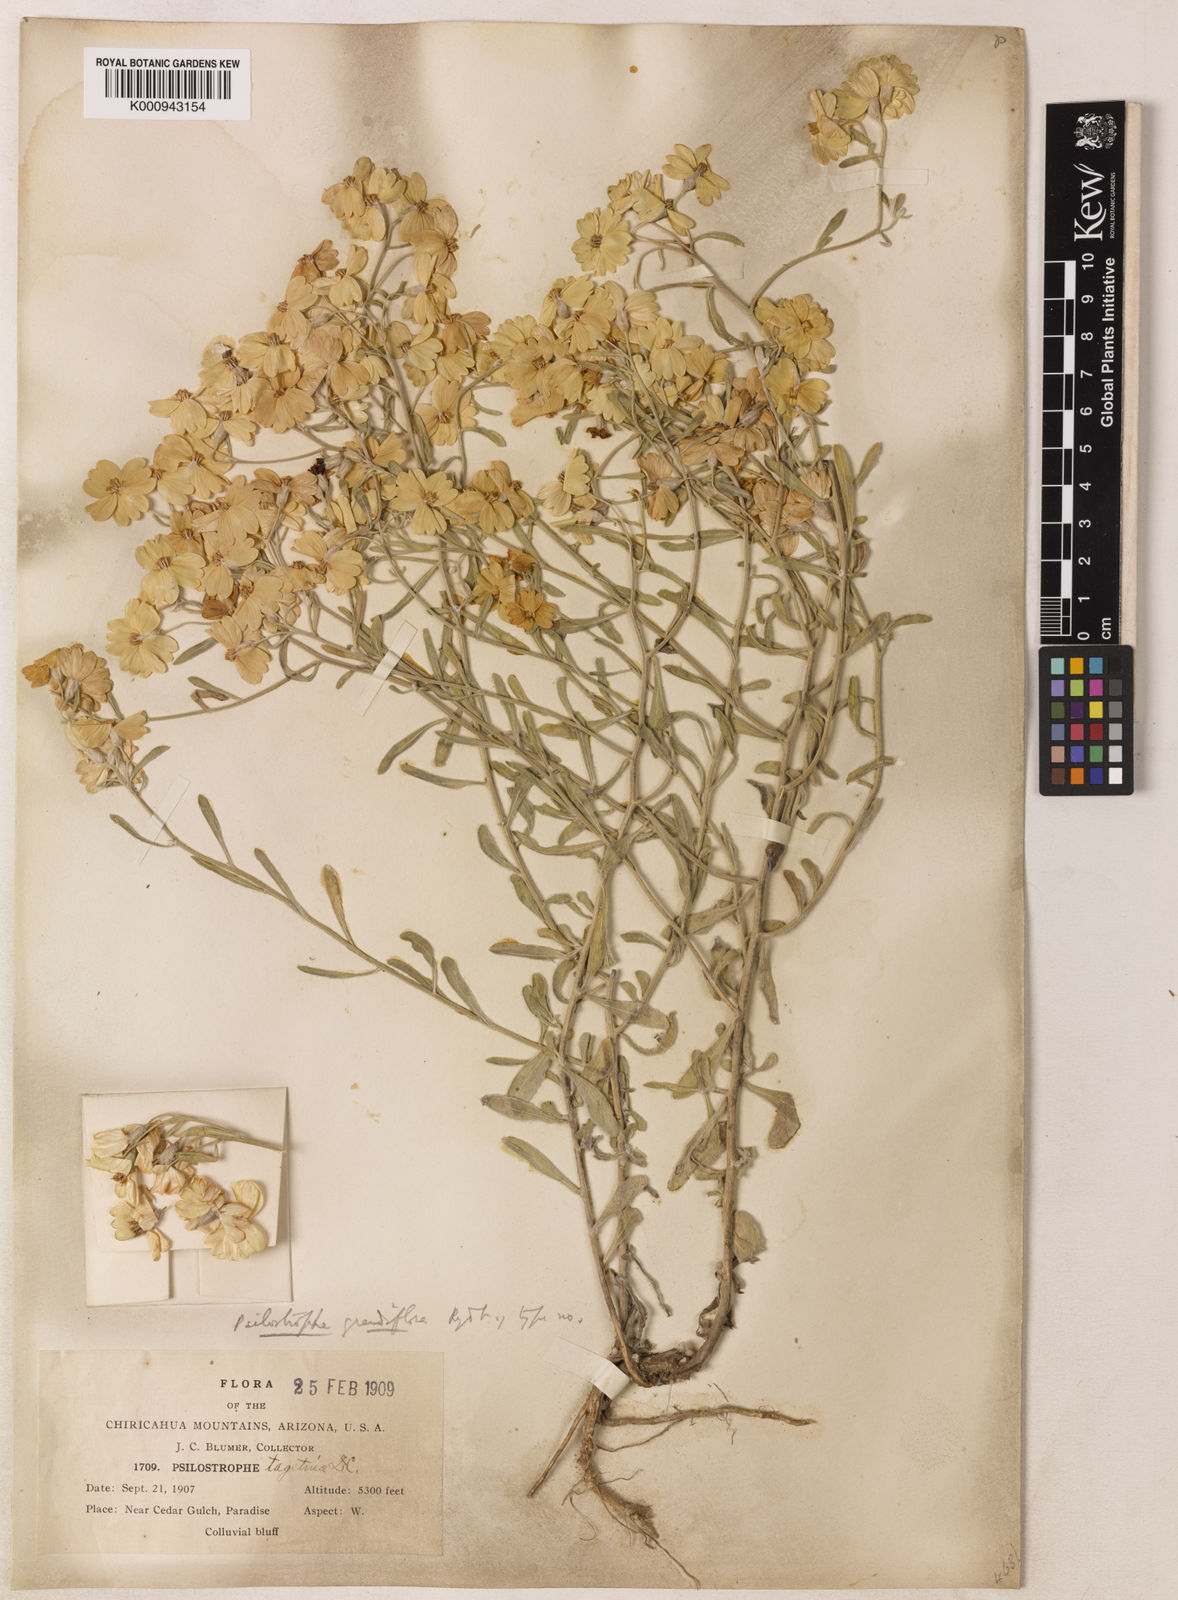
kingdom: Plantae
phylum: Tracheophyta
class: Magnoliopsida
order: Asterales
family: Asteraceae
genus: Psilostrophe
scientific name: Psilostrophe tagetina
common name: Marigold paper-flower
